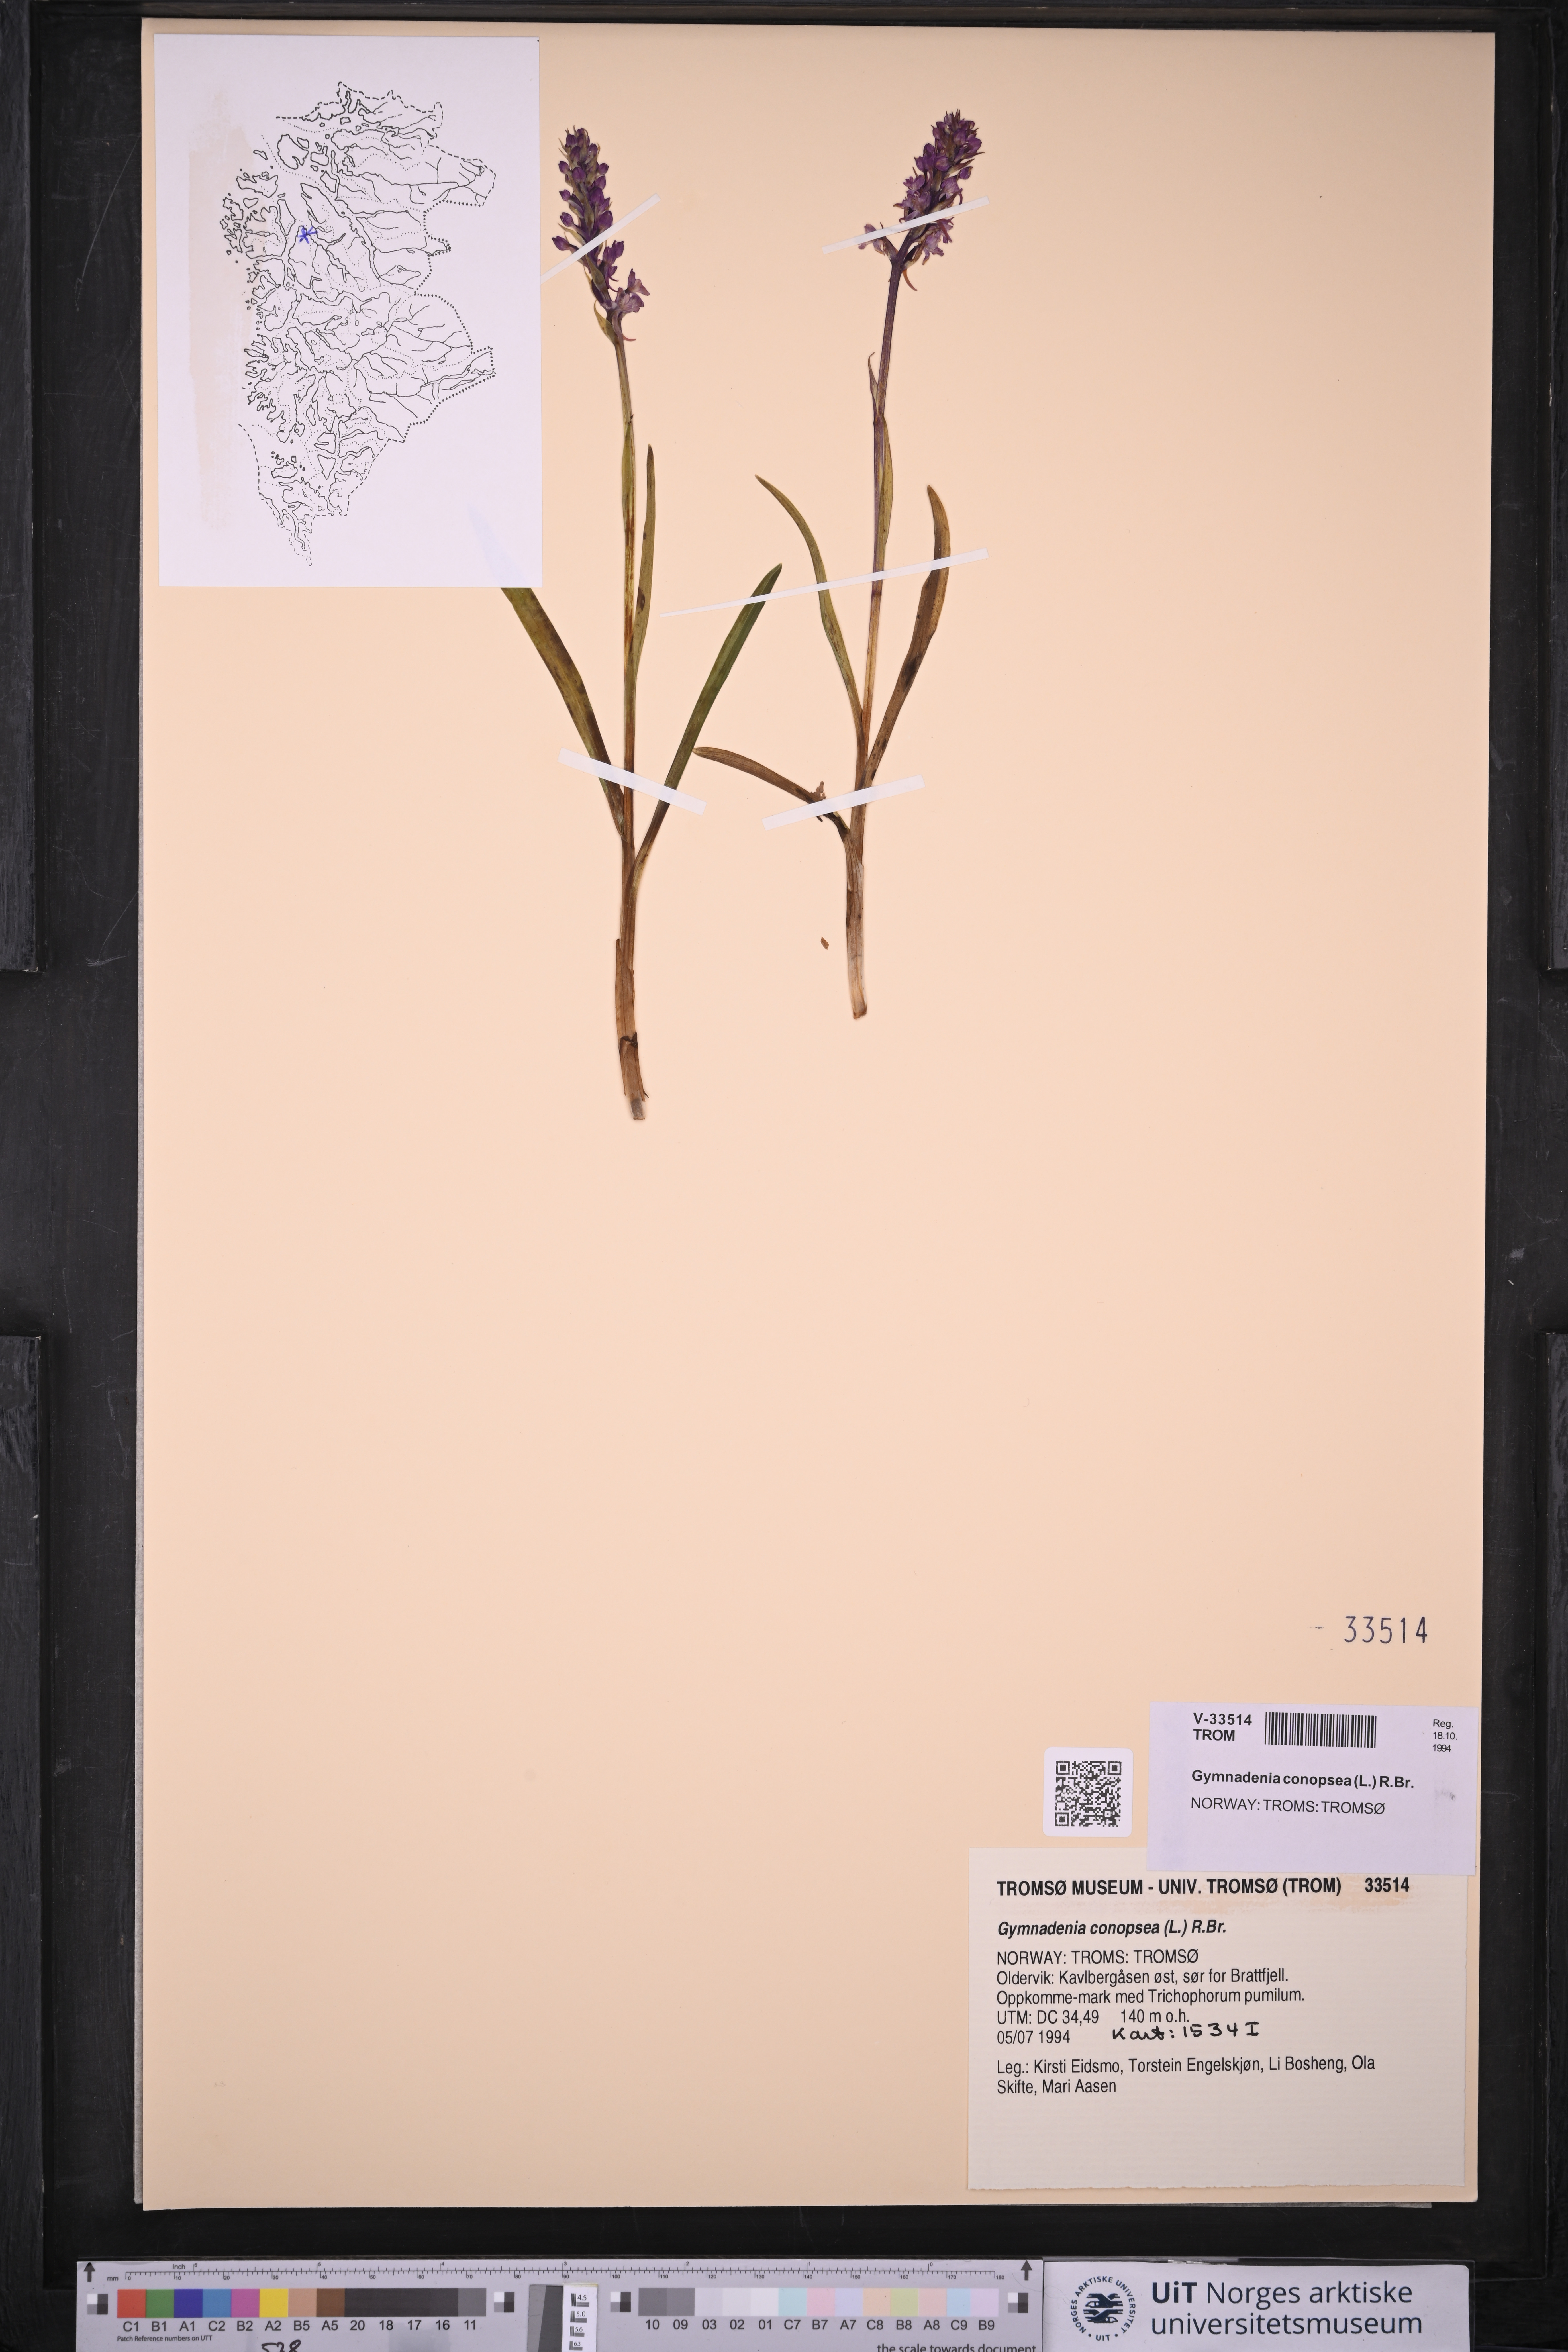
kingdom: Plantae
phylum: Tracheophyta
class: Liliopsida
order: Asparagales
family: Orchidaceae
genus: Gymnadenia
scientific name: Gymnadenia conopsea
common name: Fragrant orchid
